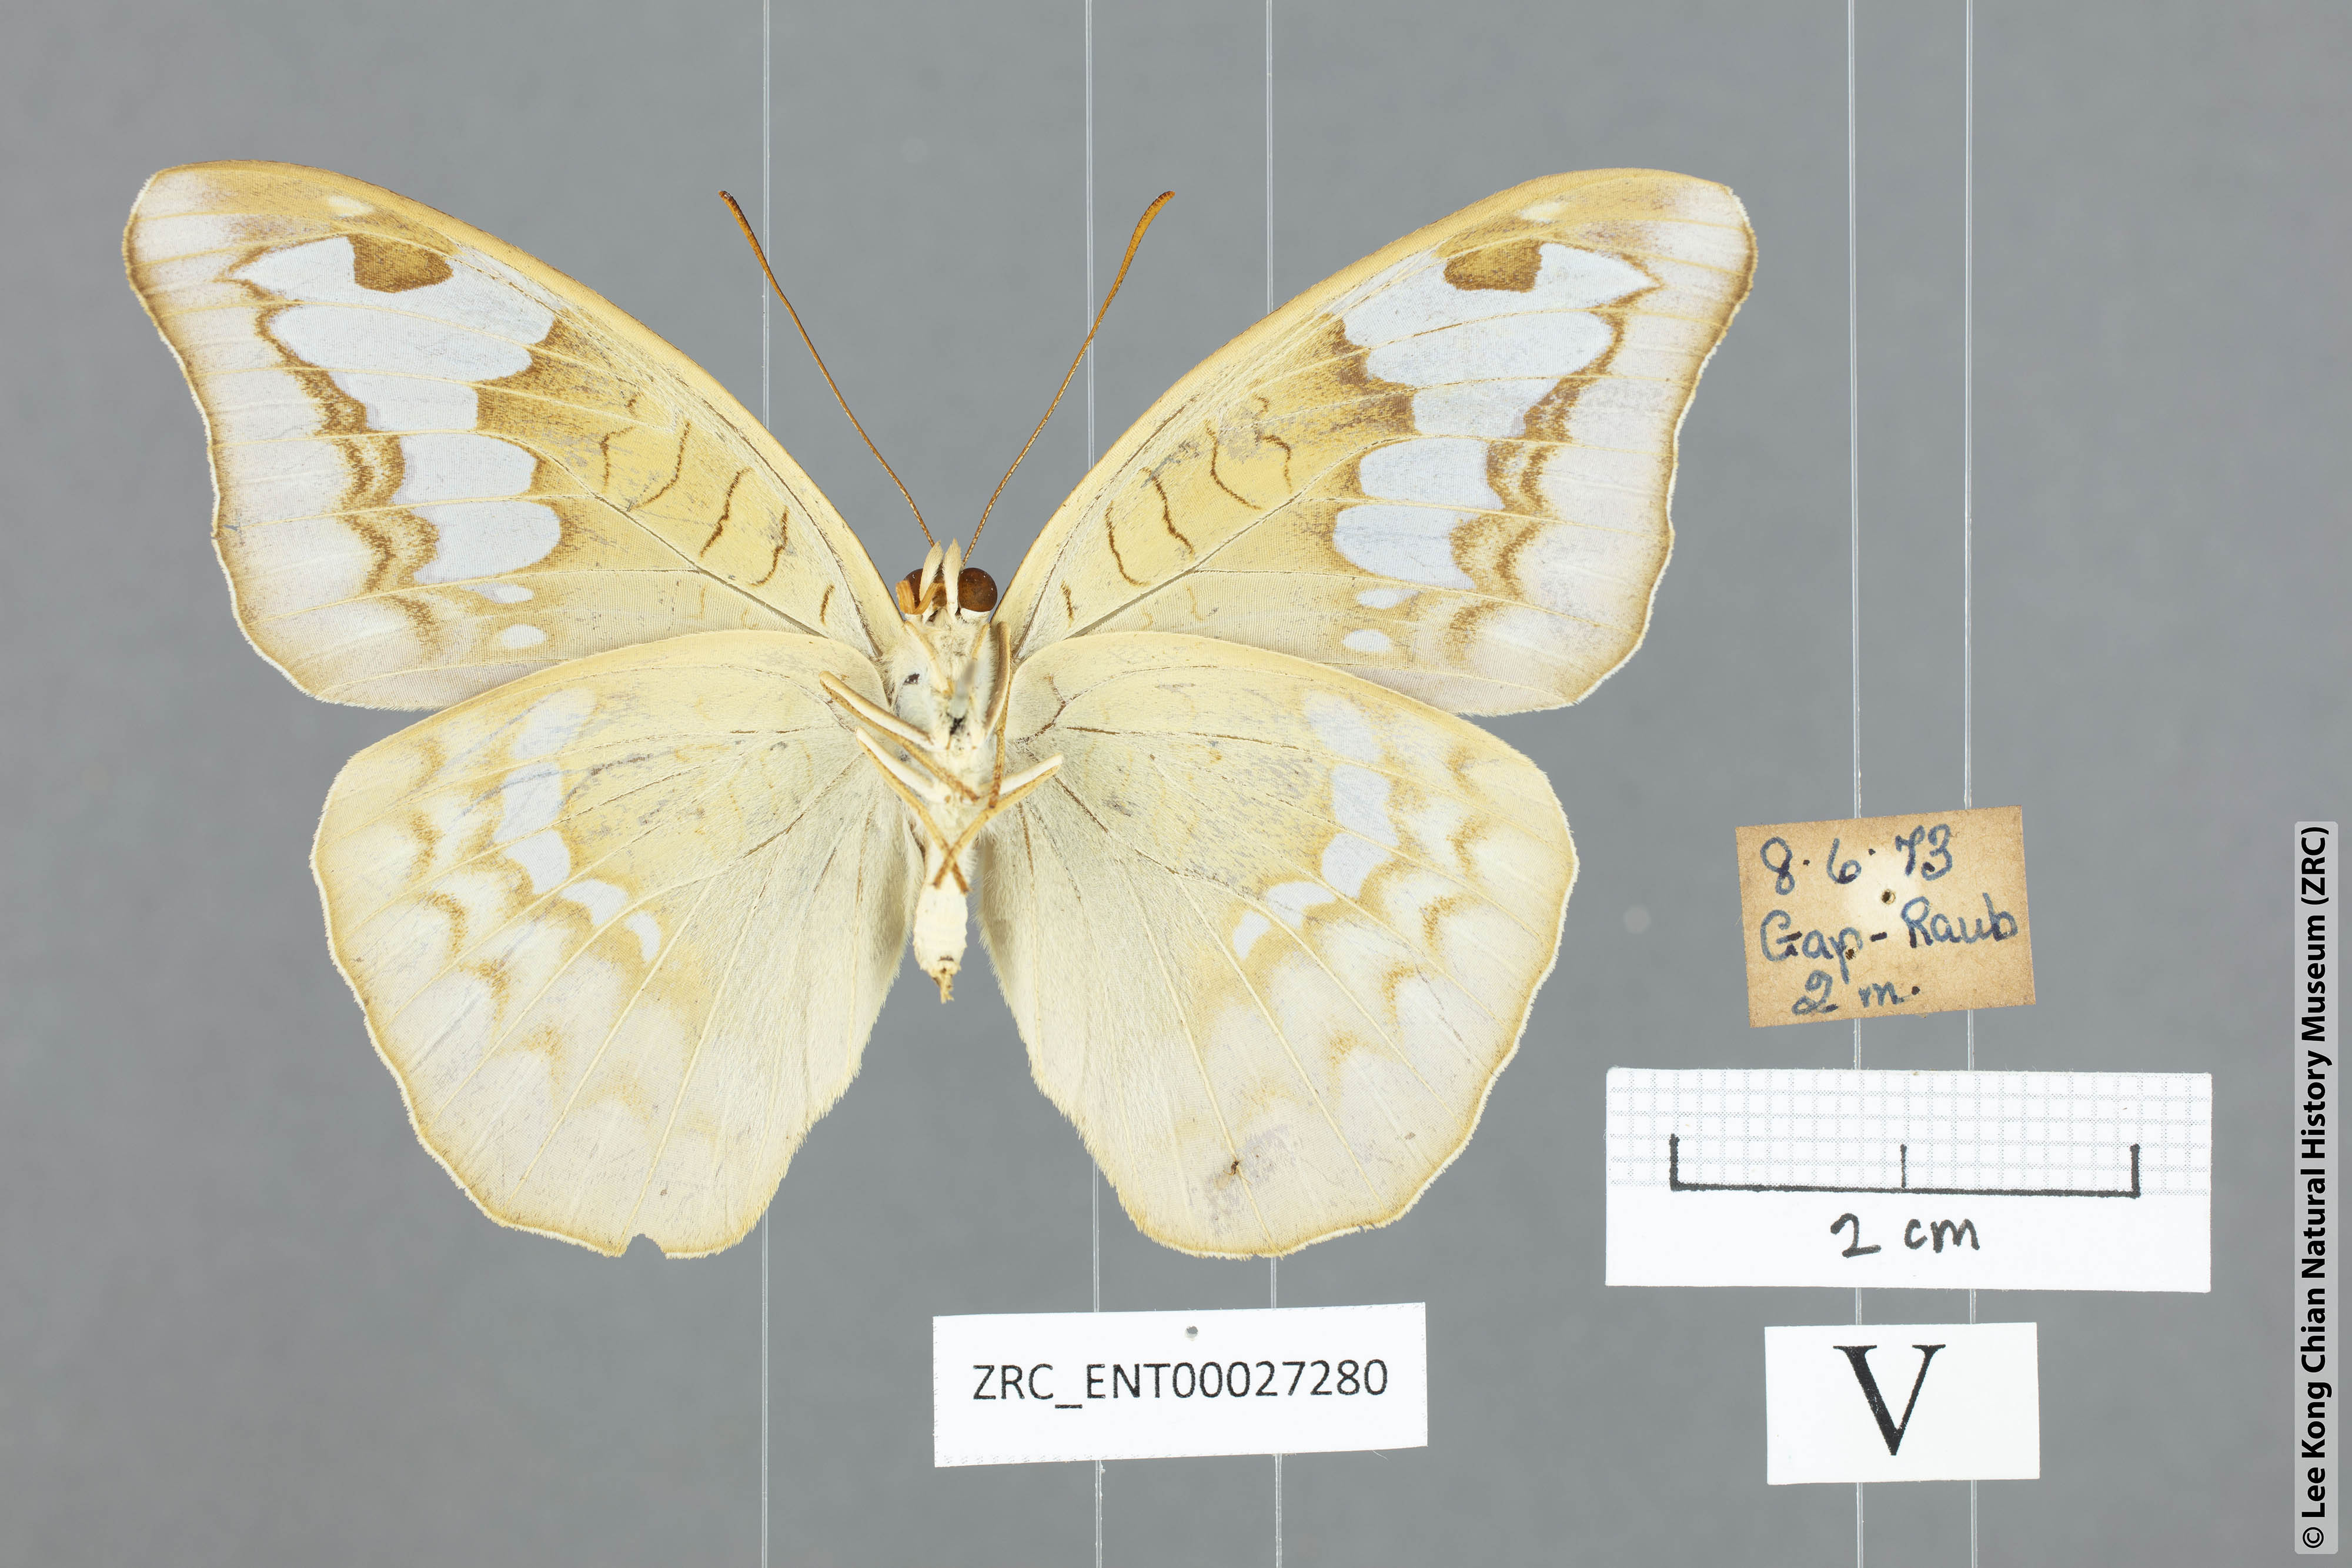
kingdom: Animalia
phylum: Arthropoda
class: Insecta
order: Lepidoptera
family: Nymphalidae
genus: Tanaecia
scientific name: Tanaecia godartii
